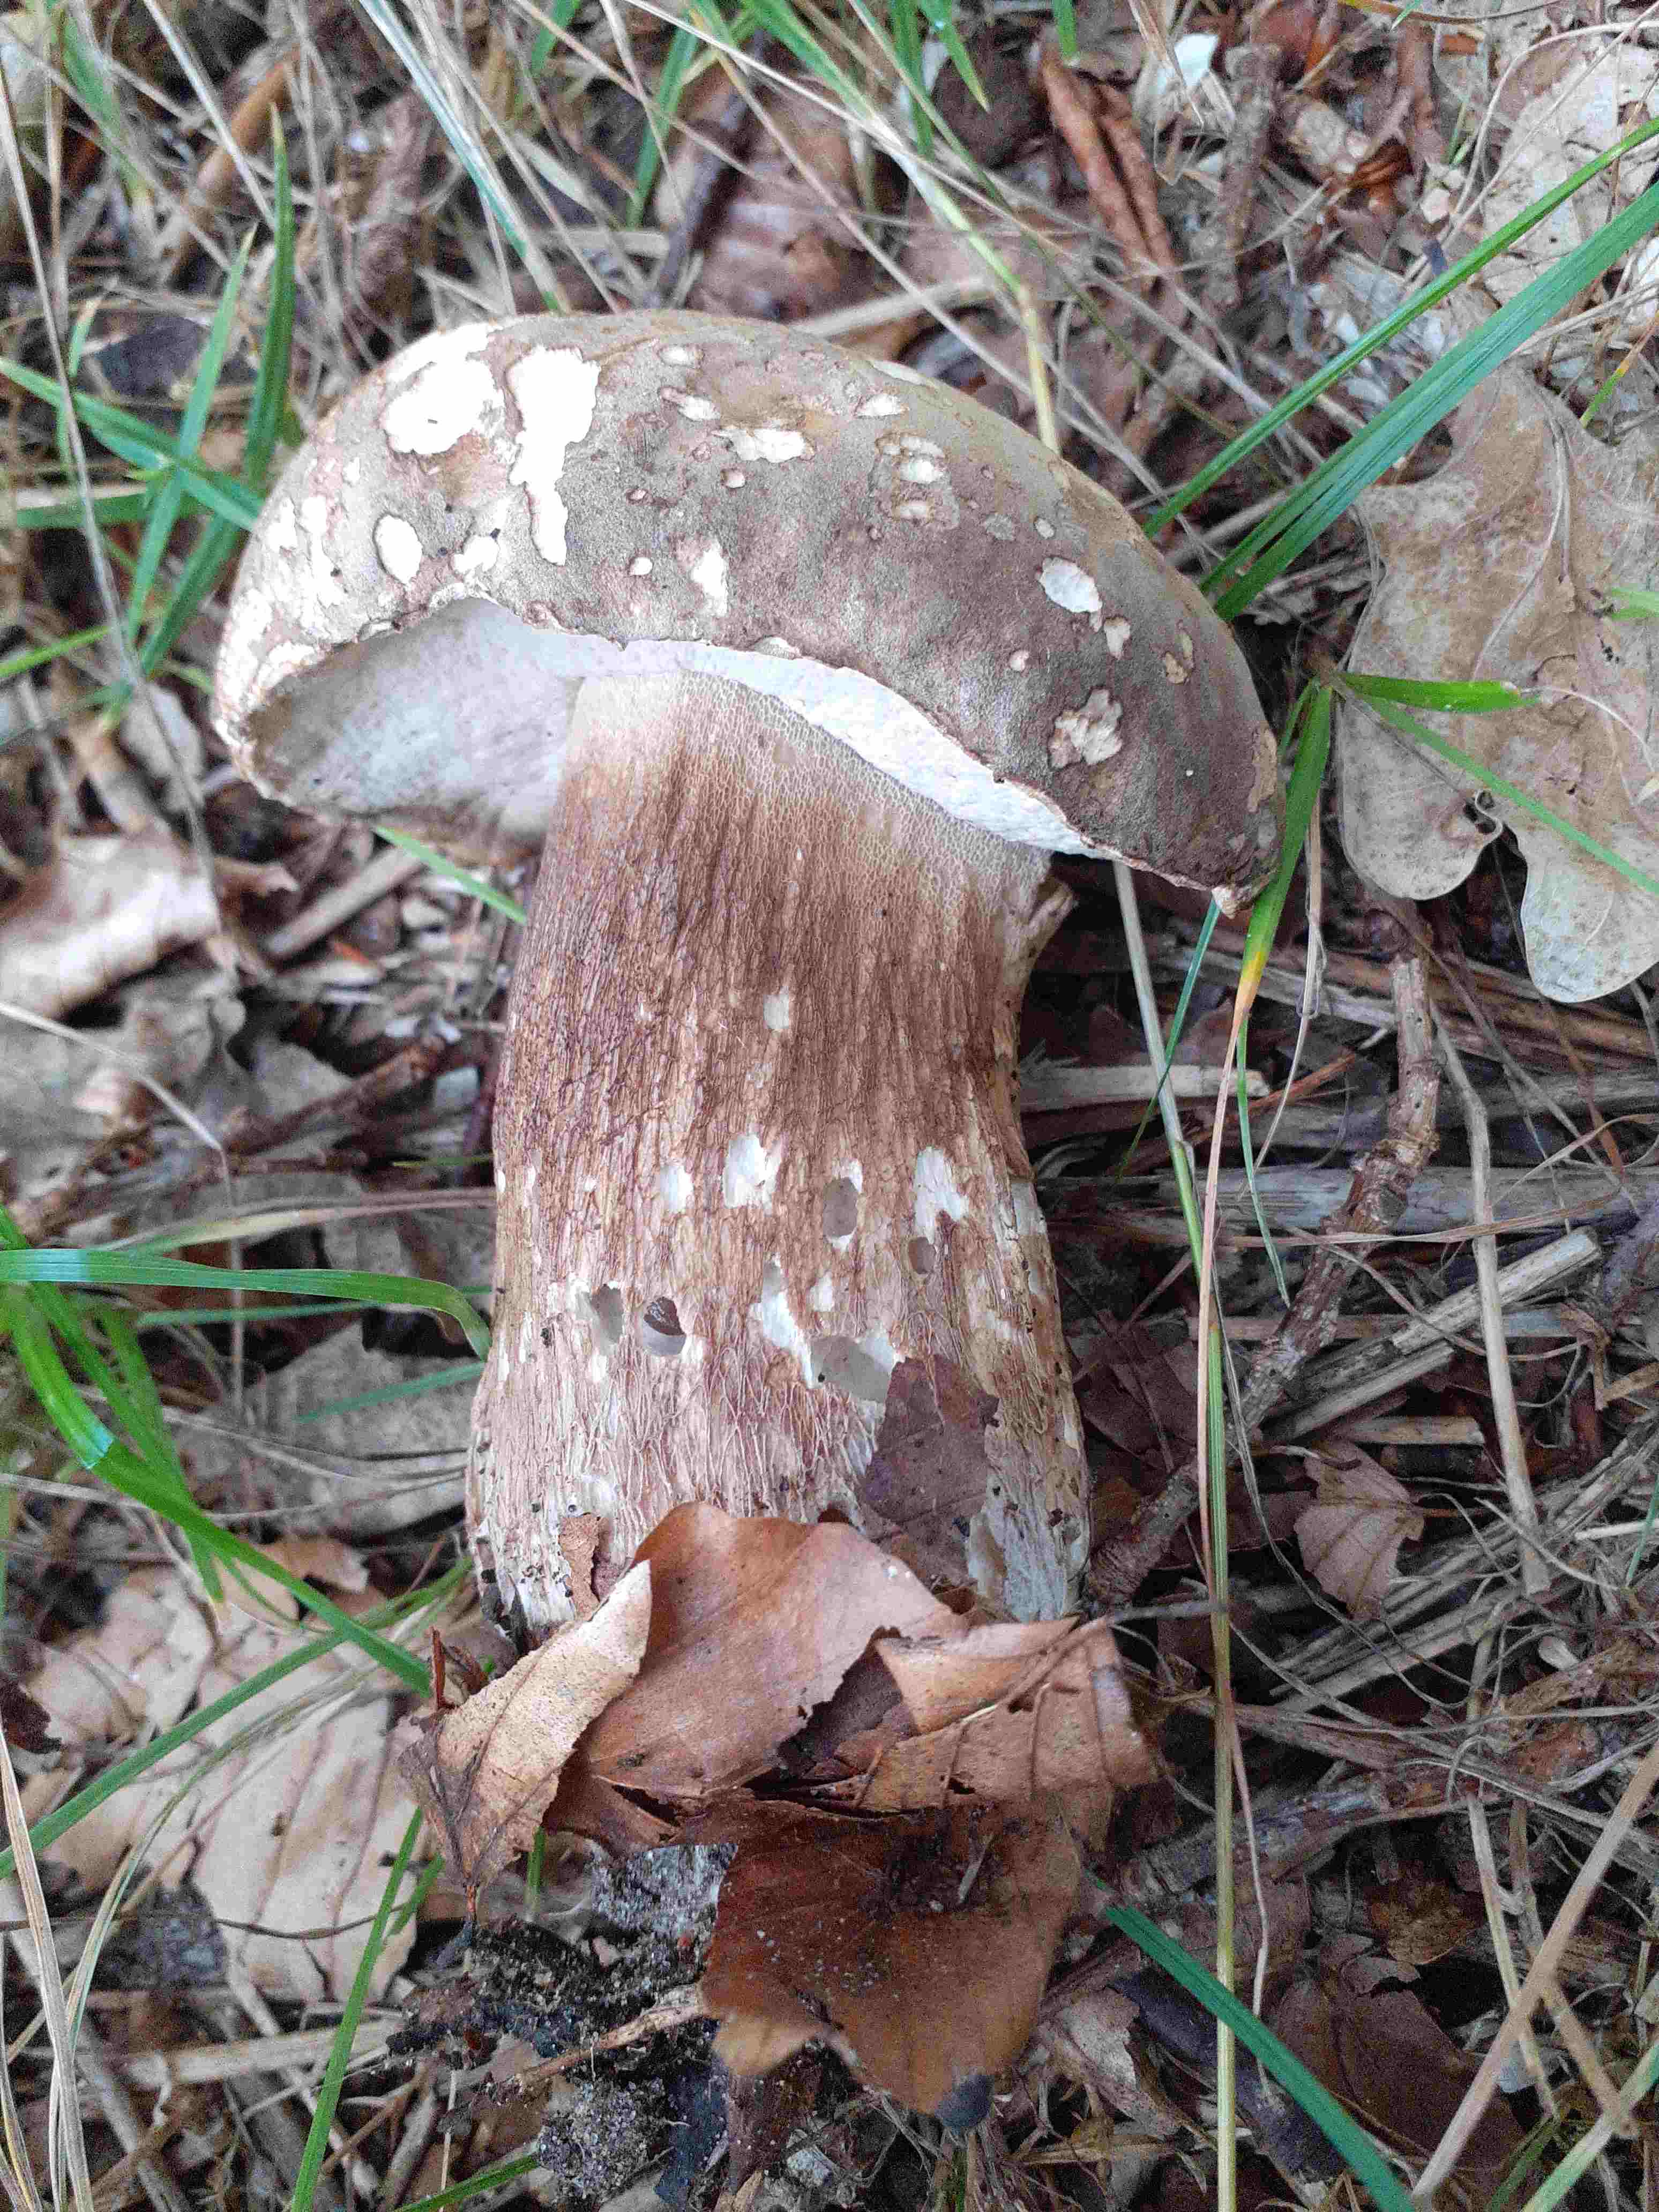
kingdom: Fungi
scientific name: Fungi
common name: bronze-rørhat
